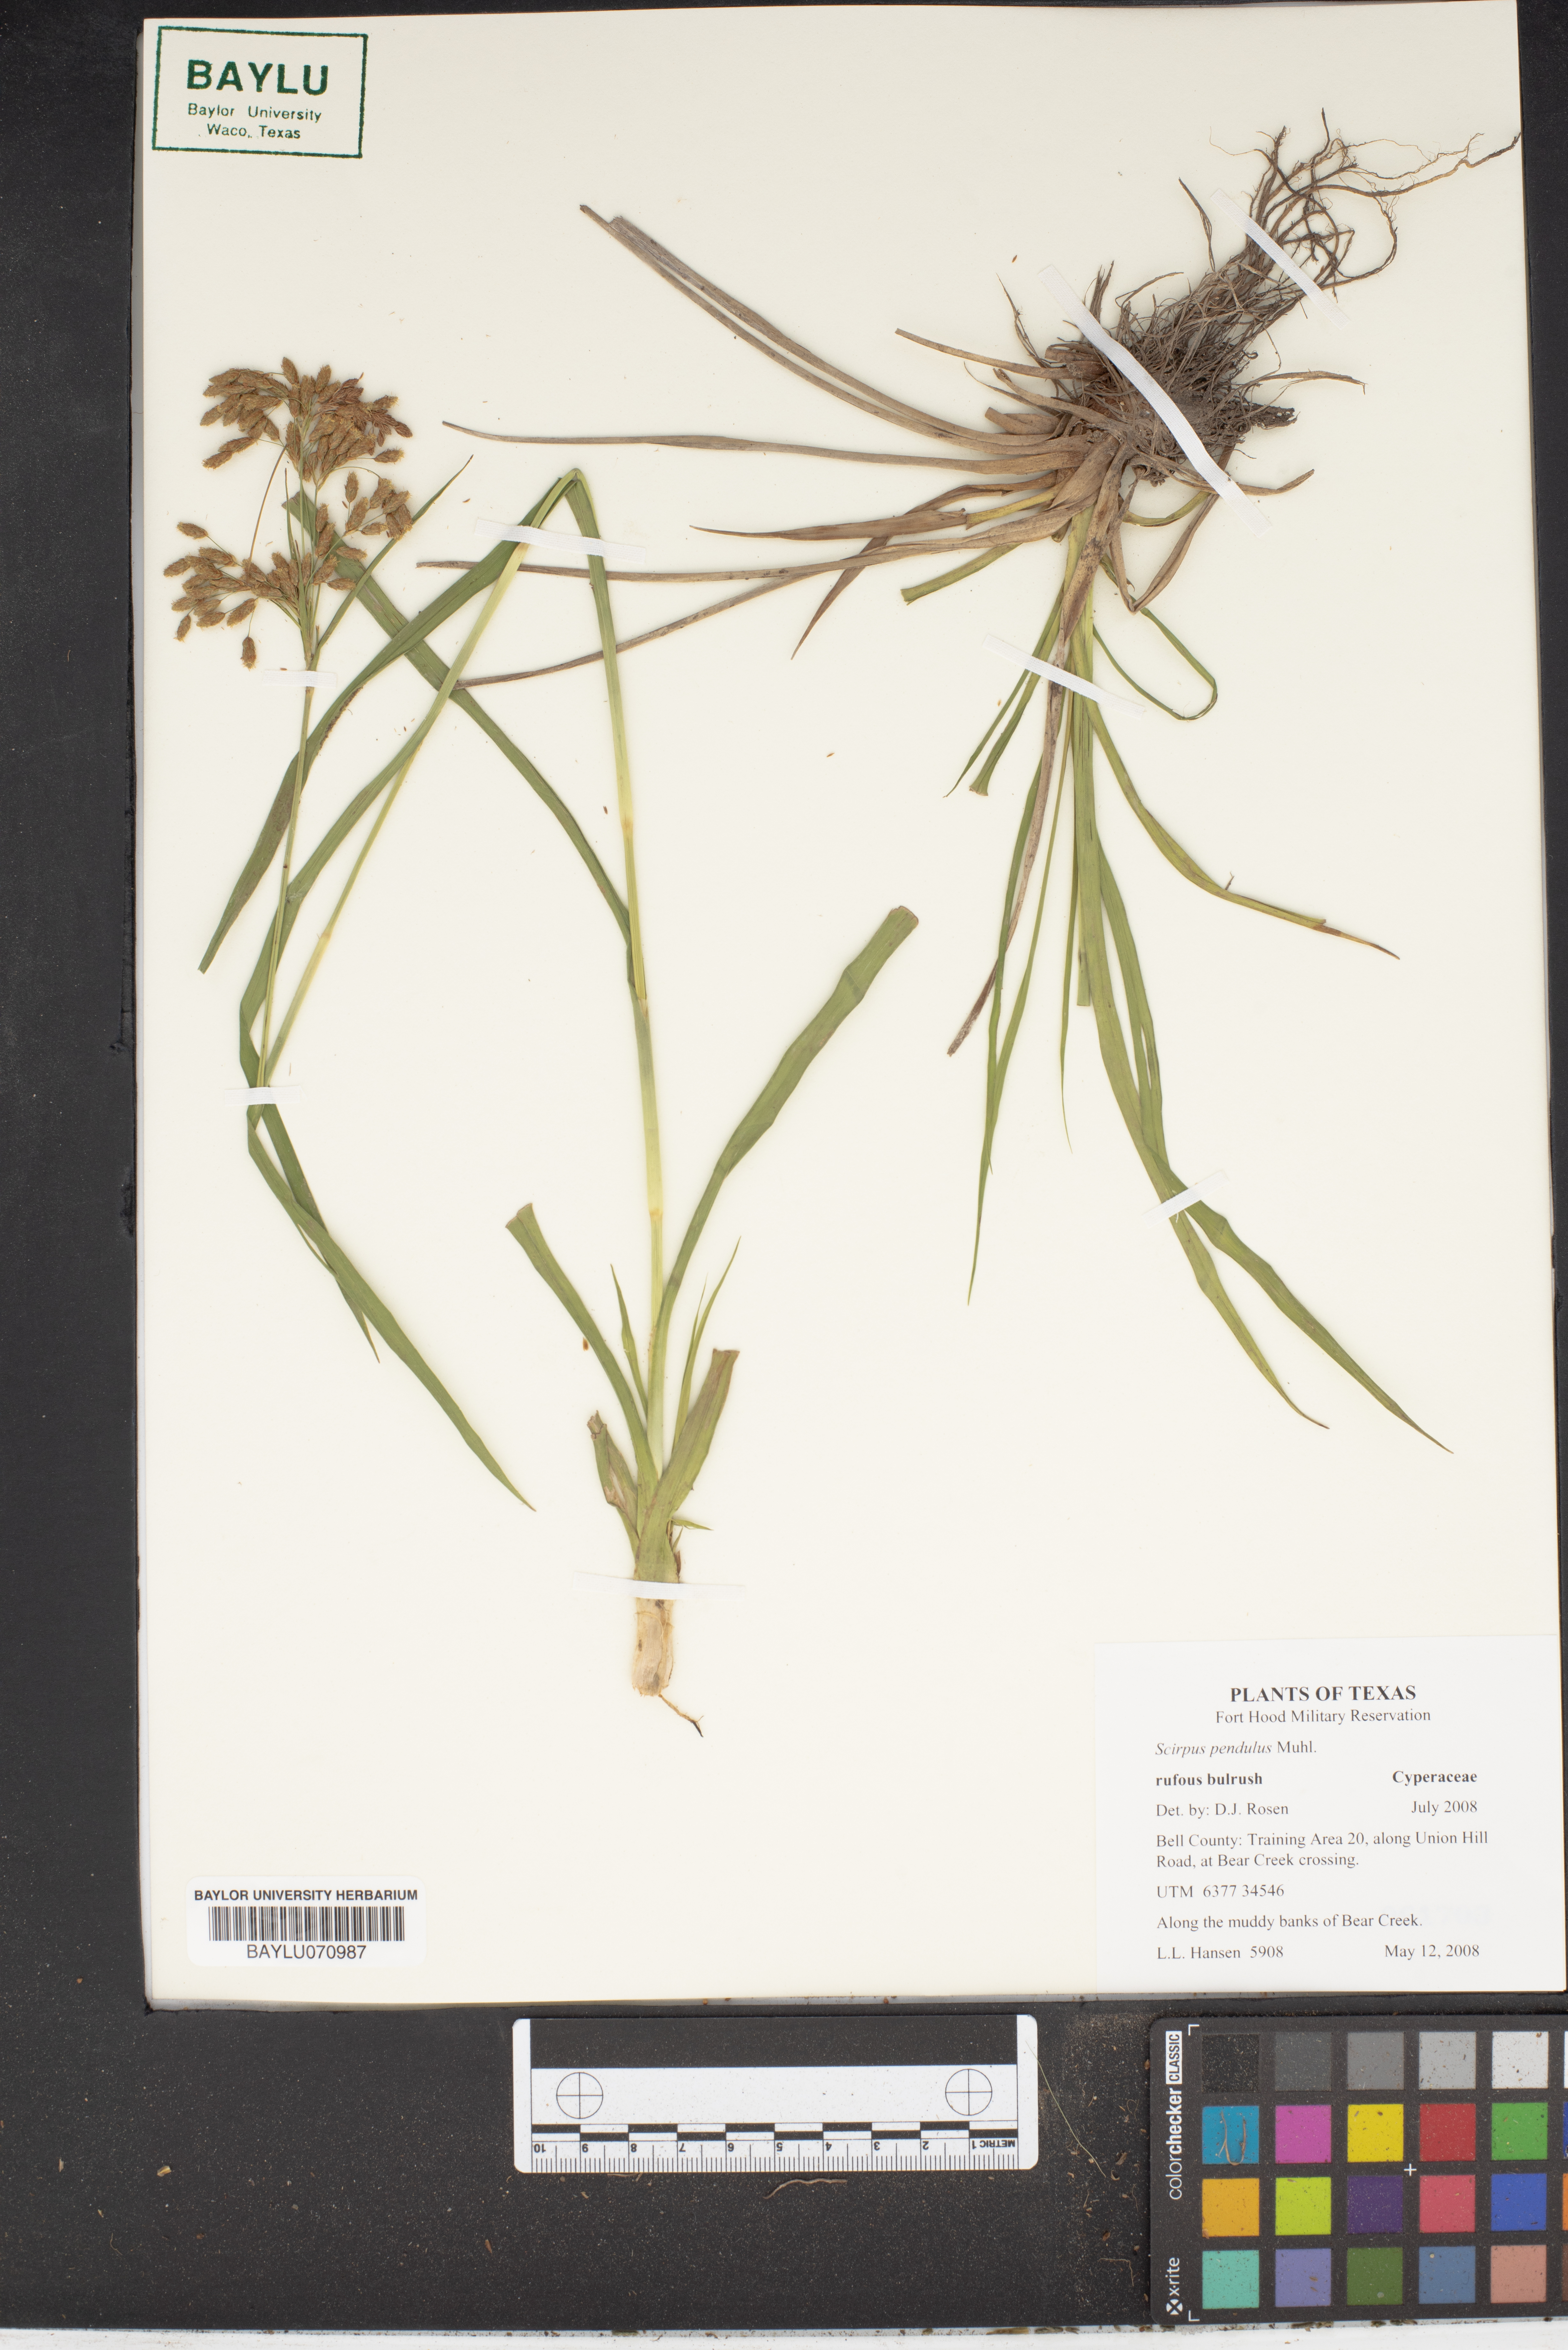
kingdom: Plantae
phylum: Tracheophyta
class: Liliopsida
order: Poales
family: Cyperaceae
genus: Scirpus
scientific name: Scirpus pendulus
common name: Nodding bulrush
